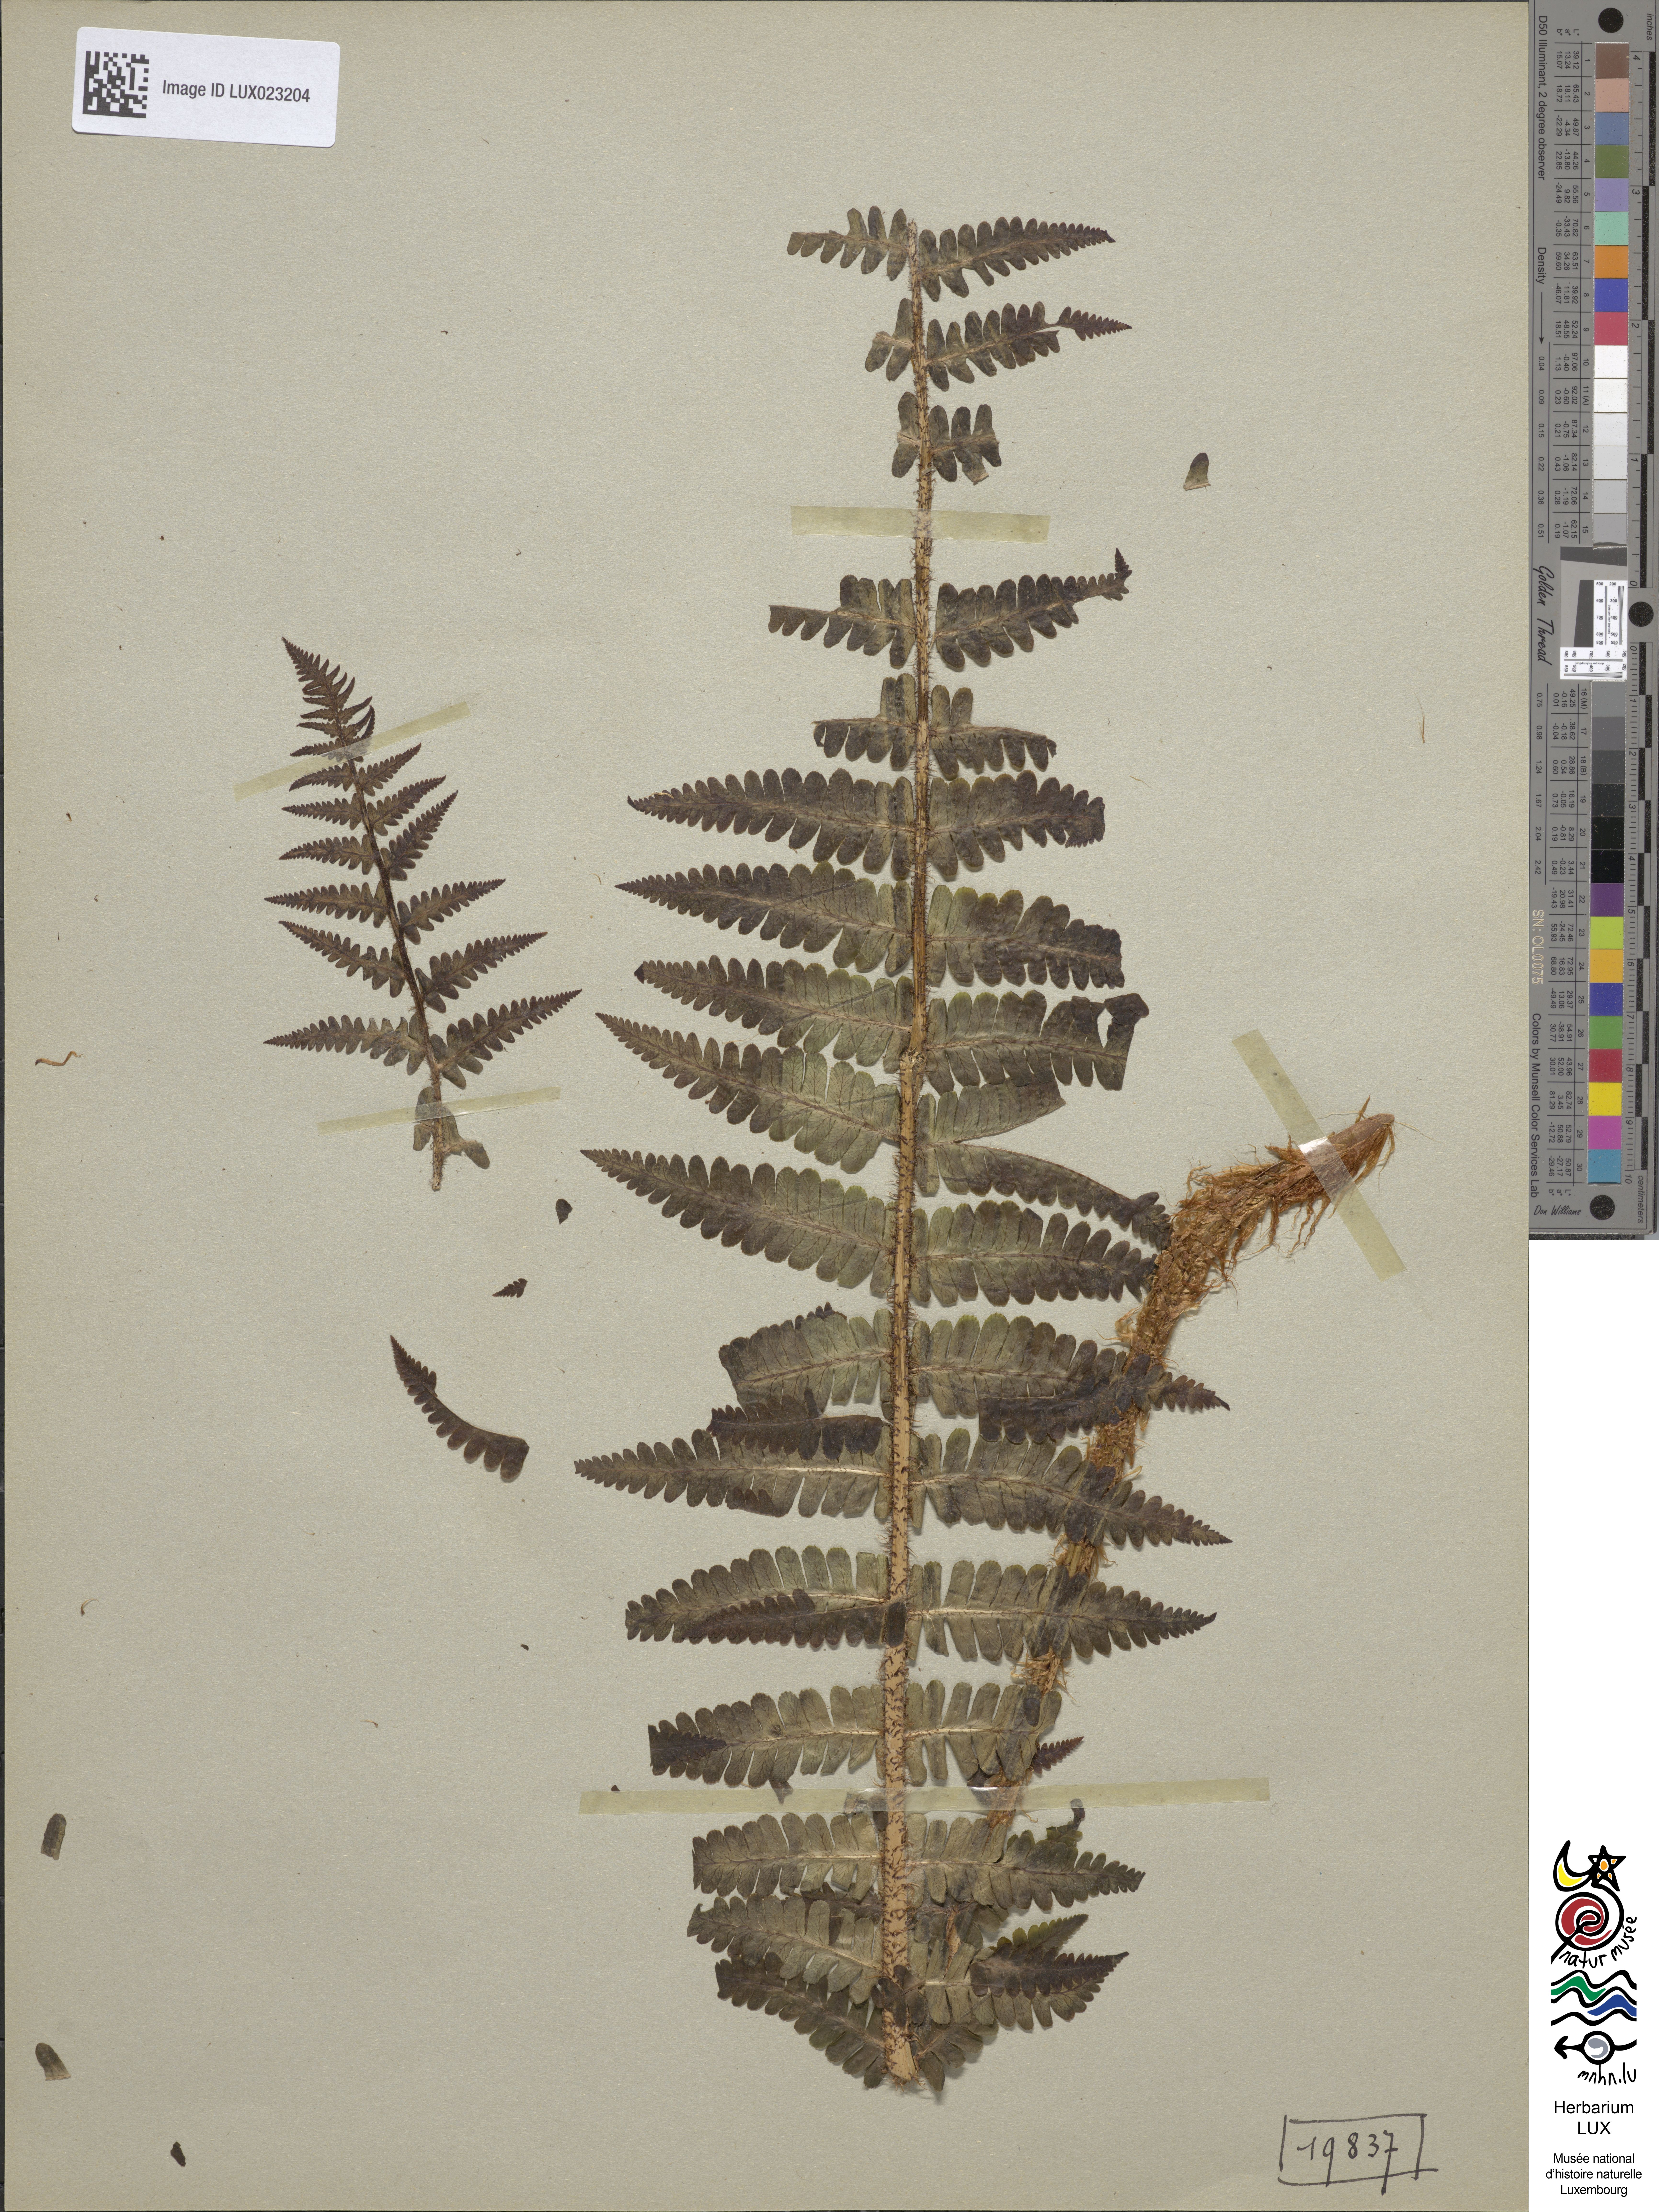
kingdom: Plantae
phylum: Tracheophyta
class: Polypodiopsida
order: Polypodiales
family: Dryopteridaceae
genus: Dryopteris
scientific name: Dryopteris paleacea
